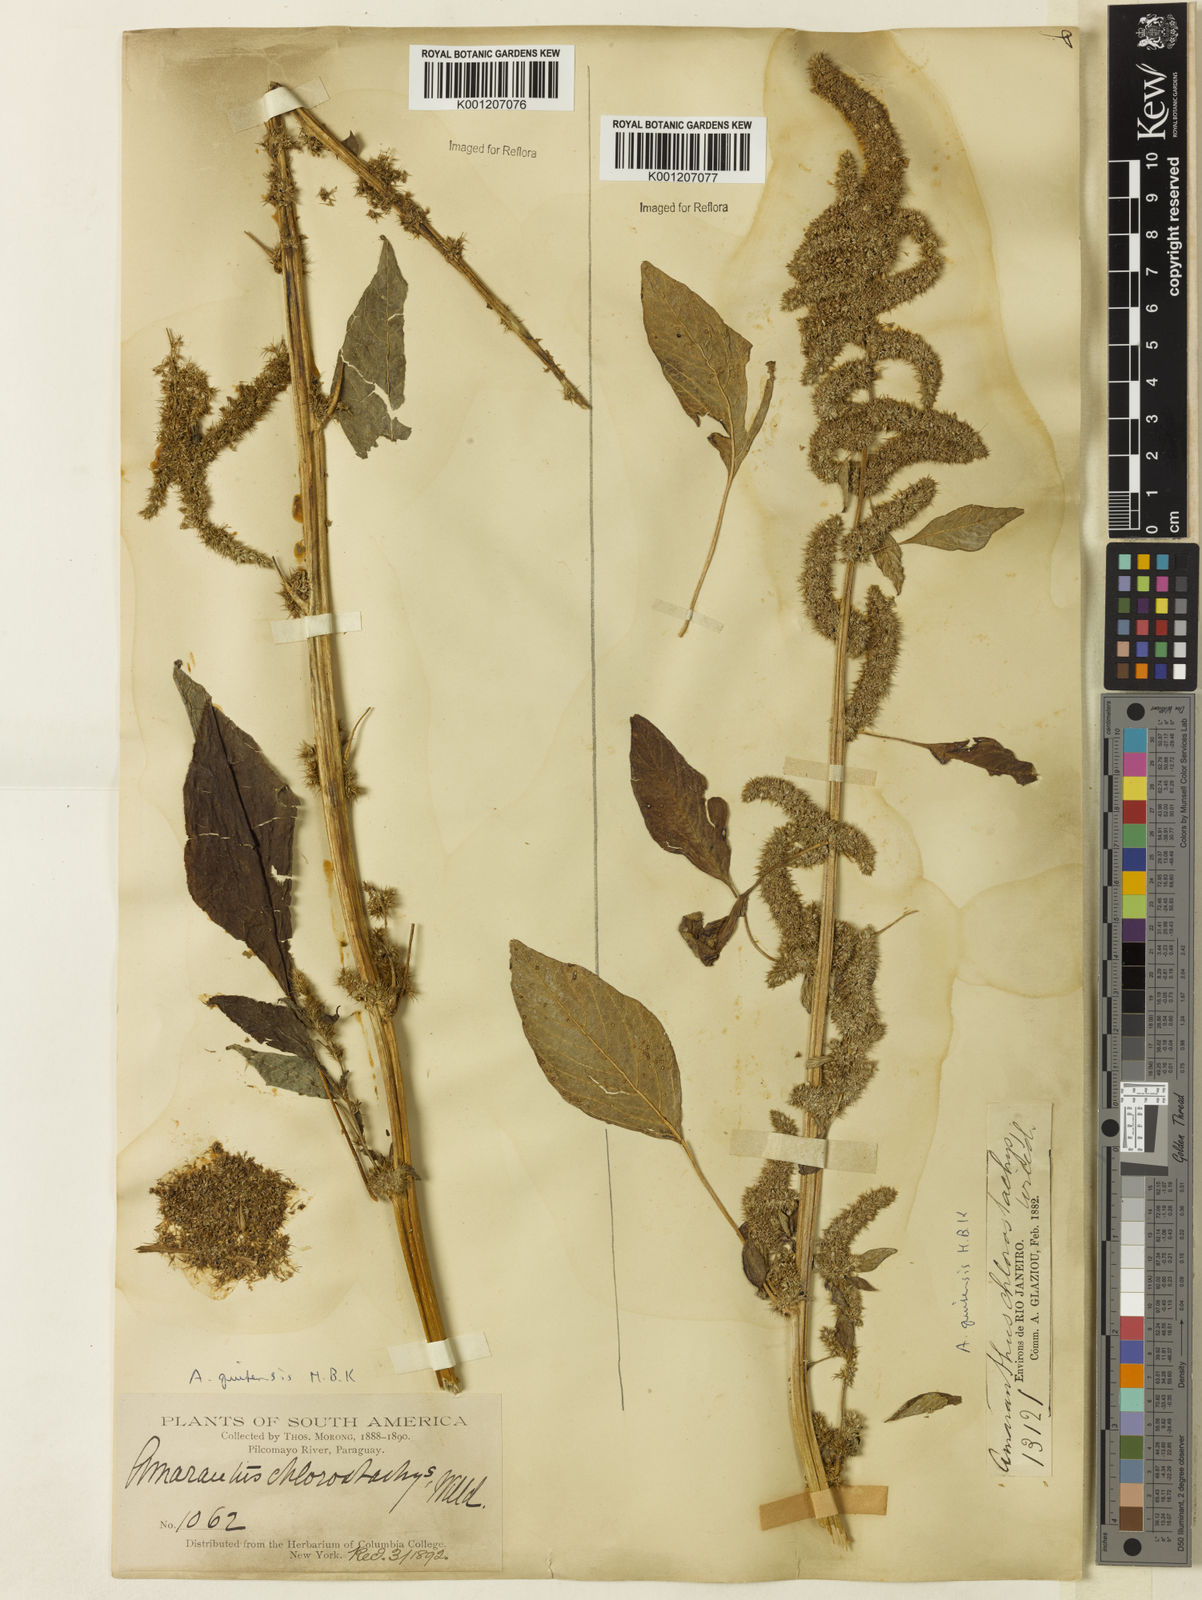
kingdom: Plantae
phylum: Tracheophyta
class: Magnoliopsida
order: Caryophyllales
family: Amaranthaceae
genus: Amaranthus
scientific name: Amaranthus quitensis
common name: Mucronate amaranth
